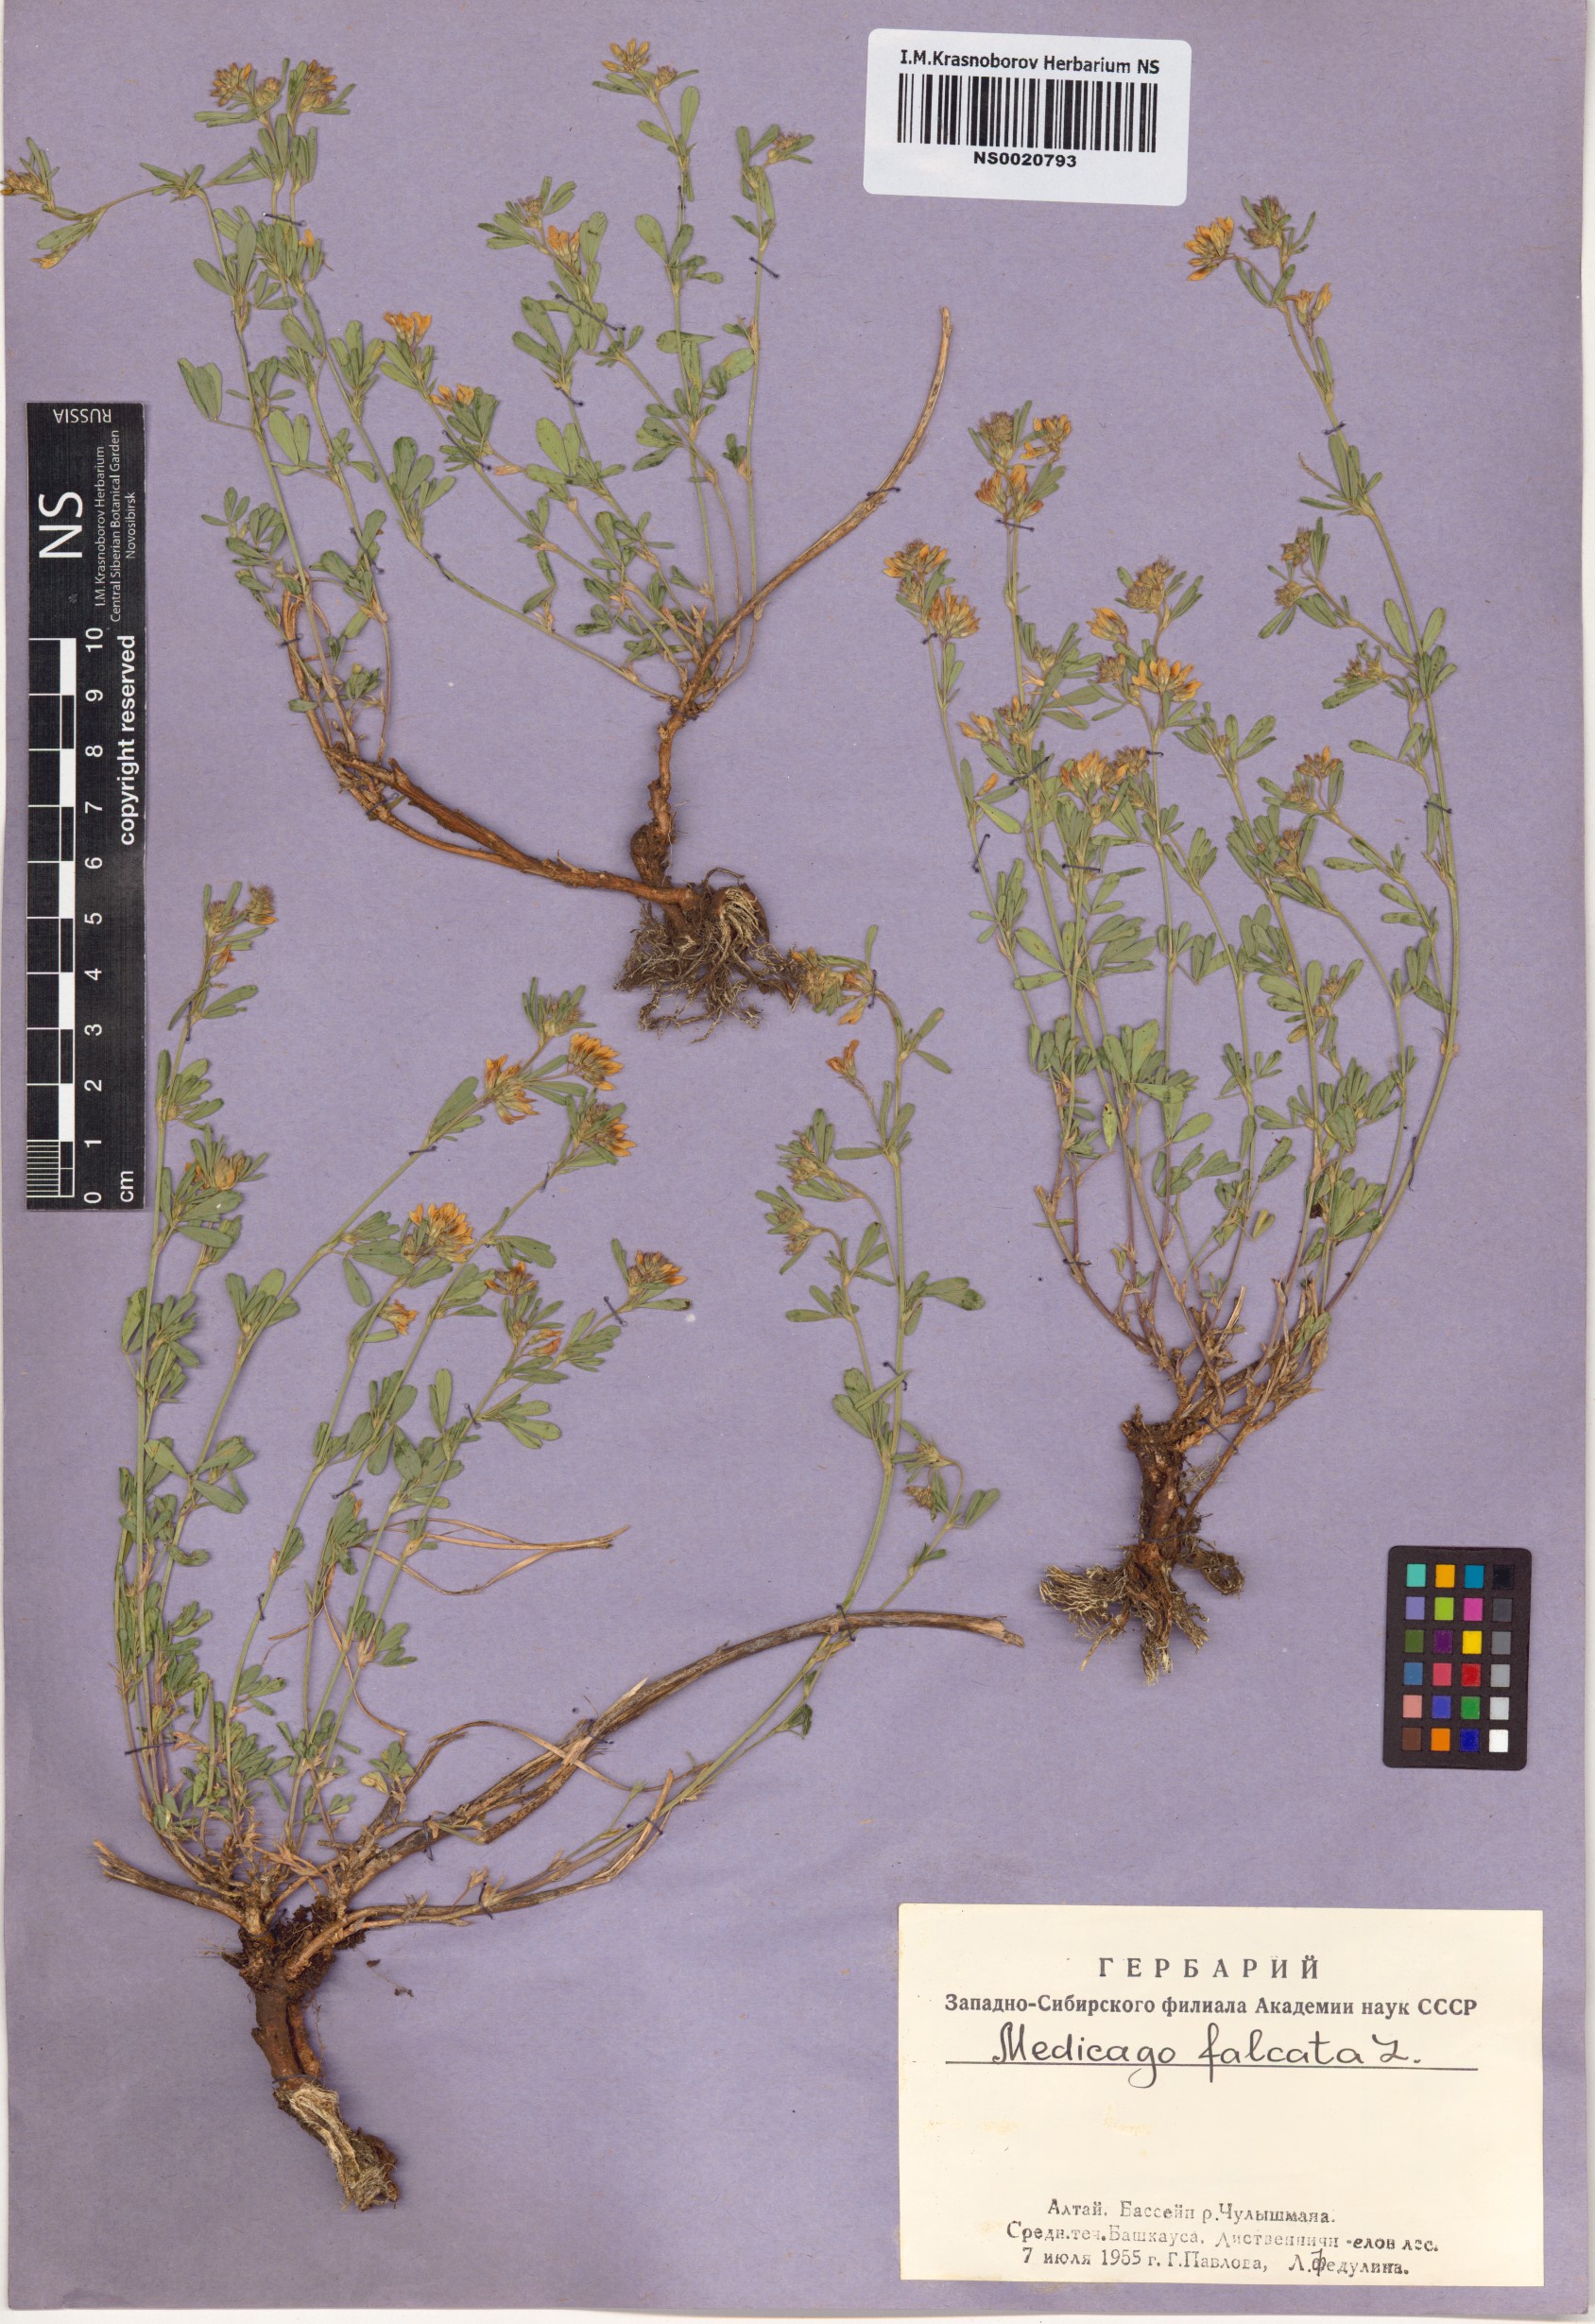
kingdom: Plantae
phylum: Tracheophyta
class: Magnoliopsida
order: Fabales
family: Fabaceae
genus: Medicago
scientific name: Medicago falcata
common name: Sickle medick
